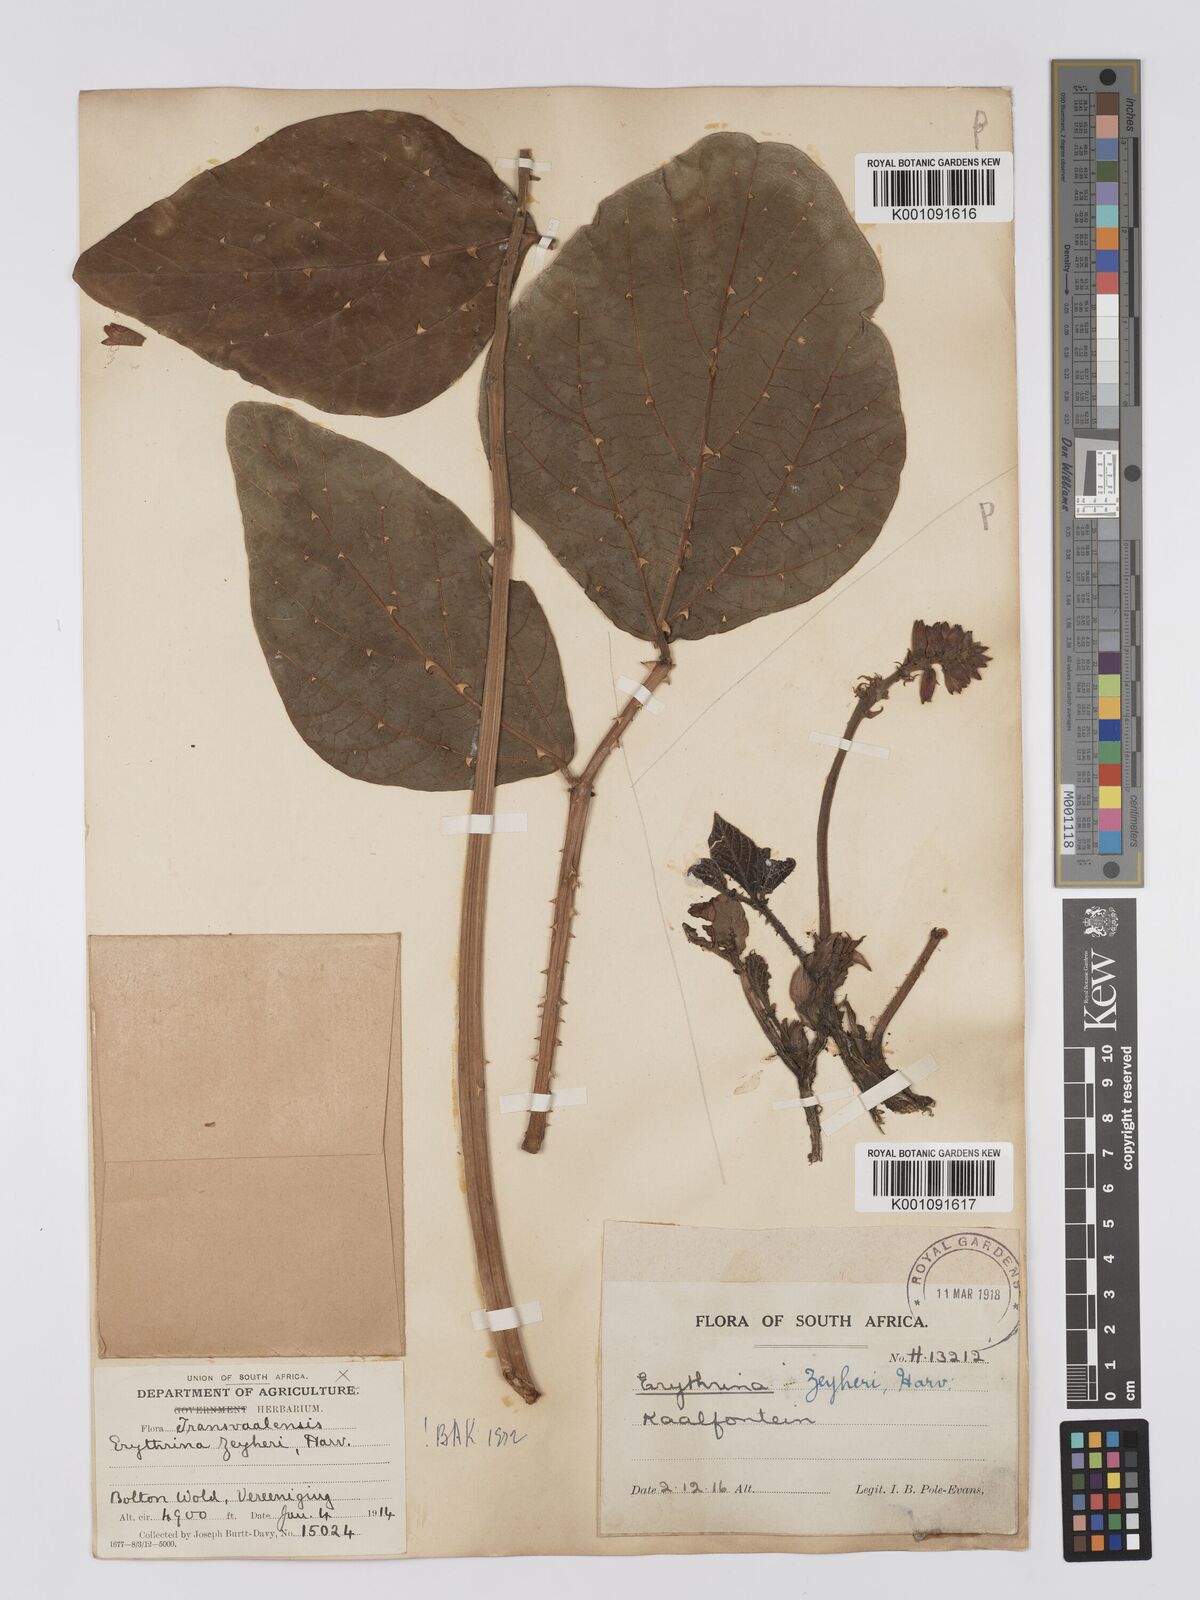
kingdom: Plantae
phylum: Tracheophyta
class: Magnoliopsida
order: Fabales
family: Fabaceae
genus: Erythrina
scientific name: Erythrina zeyheri
